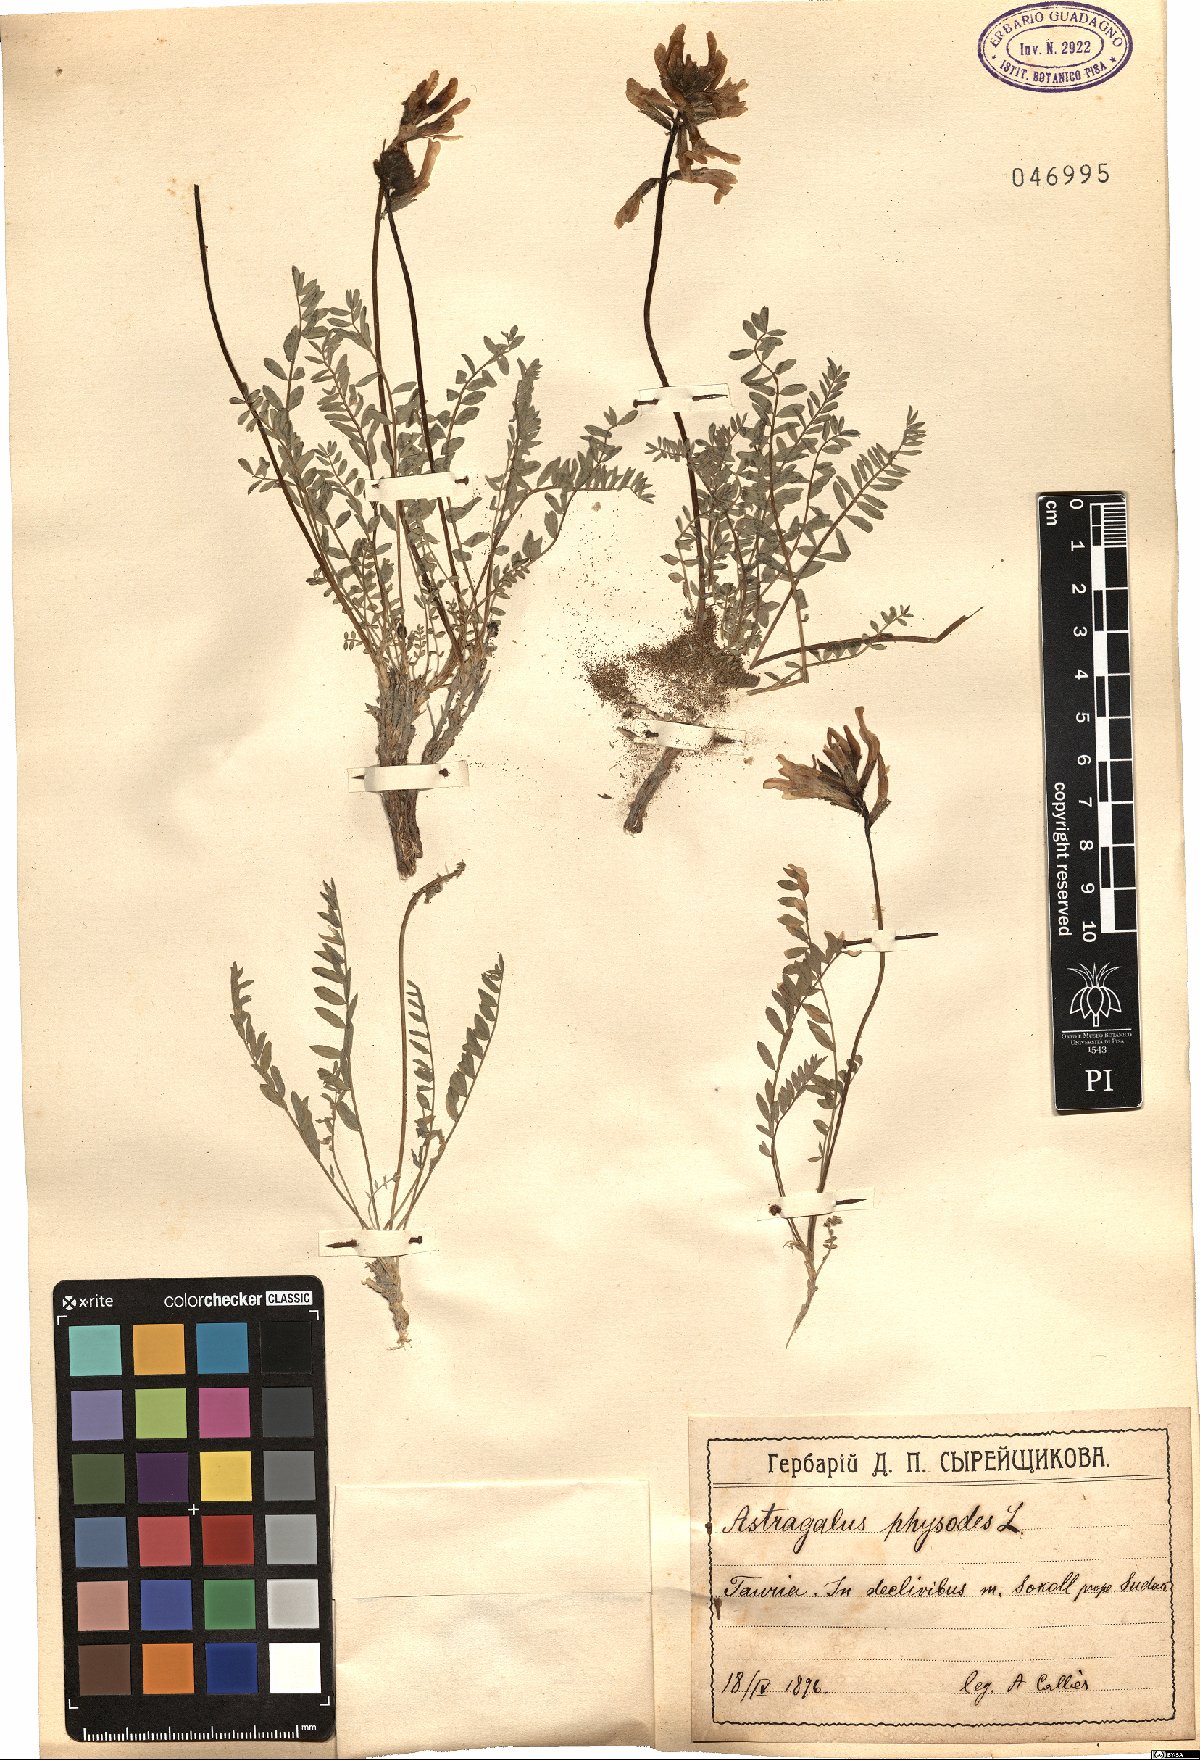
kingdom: Plantae
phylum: Tracheophyta
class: Magnoliopsida
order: Fabales
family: Fabaceae
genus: Astragalus
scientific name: Astragalus physodes
